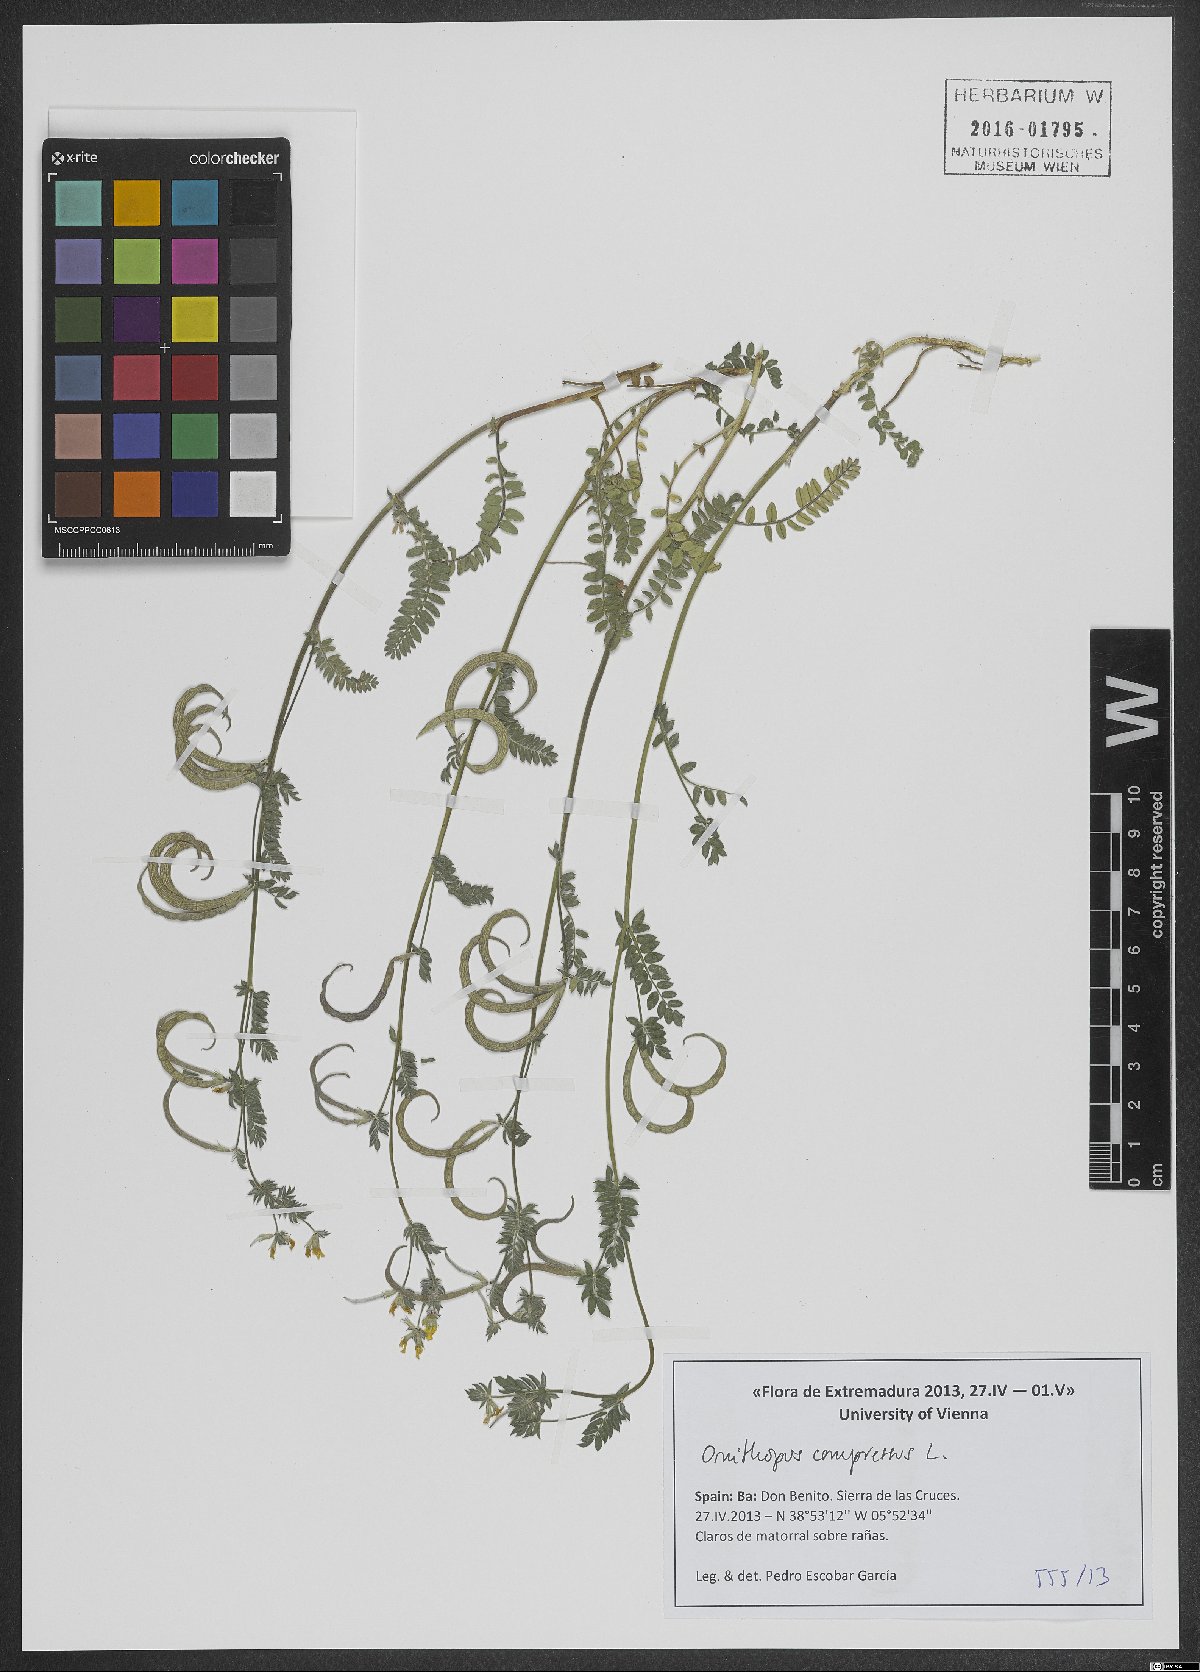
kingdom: Plantae
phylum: Tracheophyta
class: Magnoliopsida
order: Fabales
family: Fabaceae
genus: Ornithopus
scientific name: Ornithopus compressus
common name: Yellow serradella
